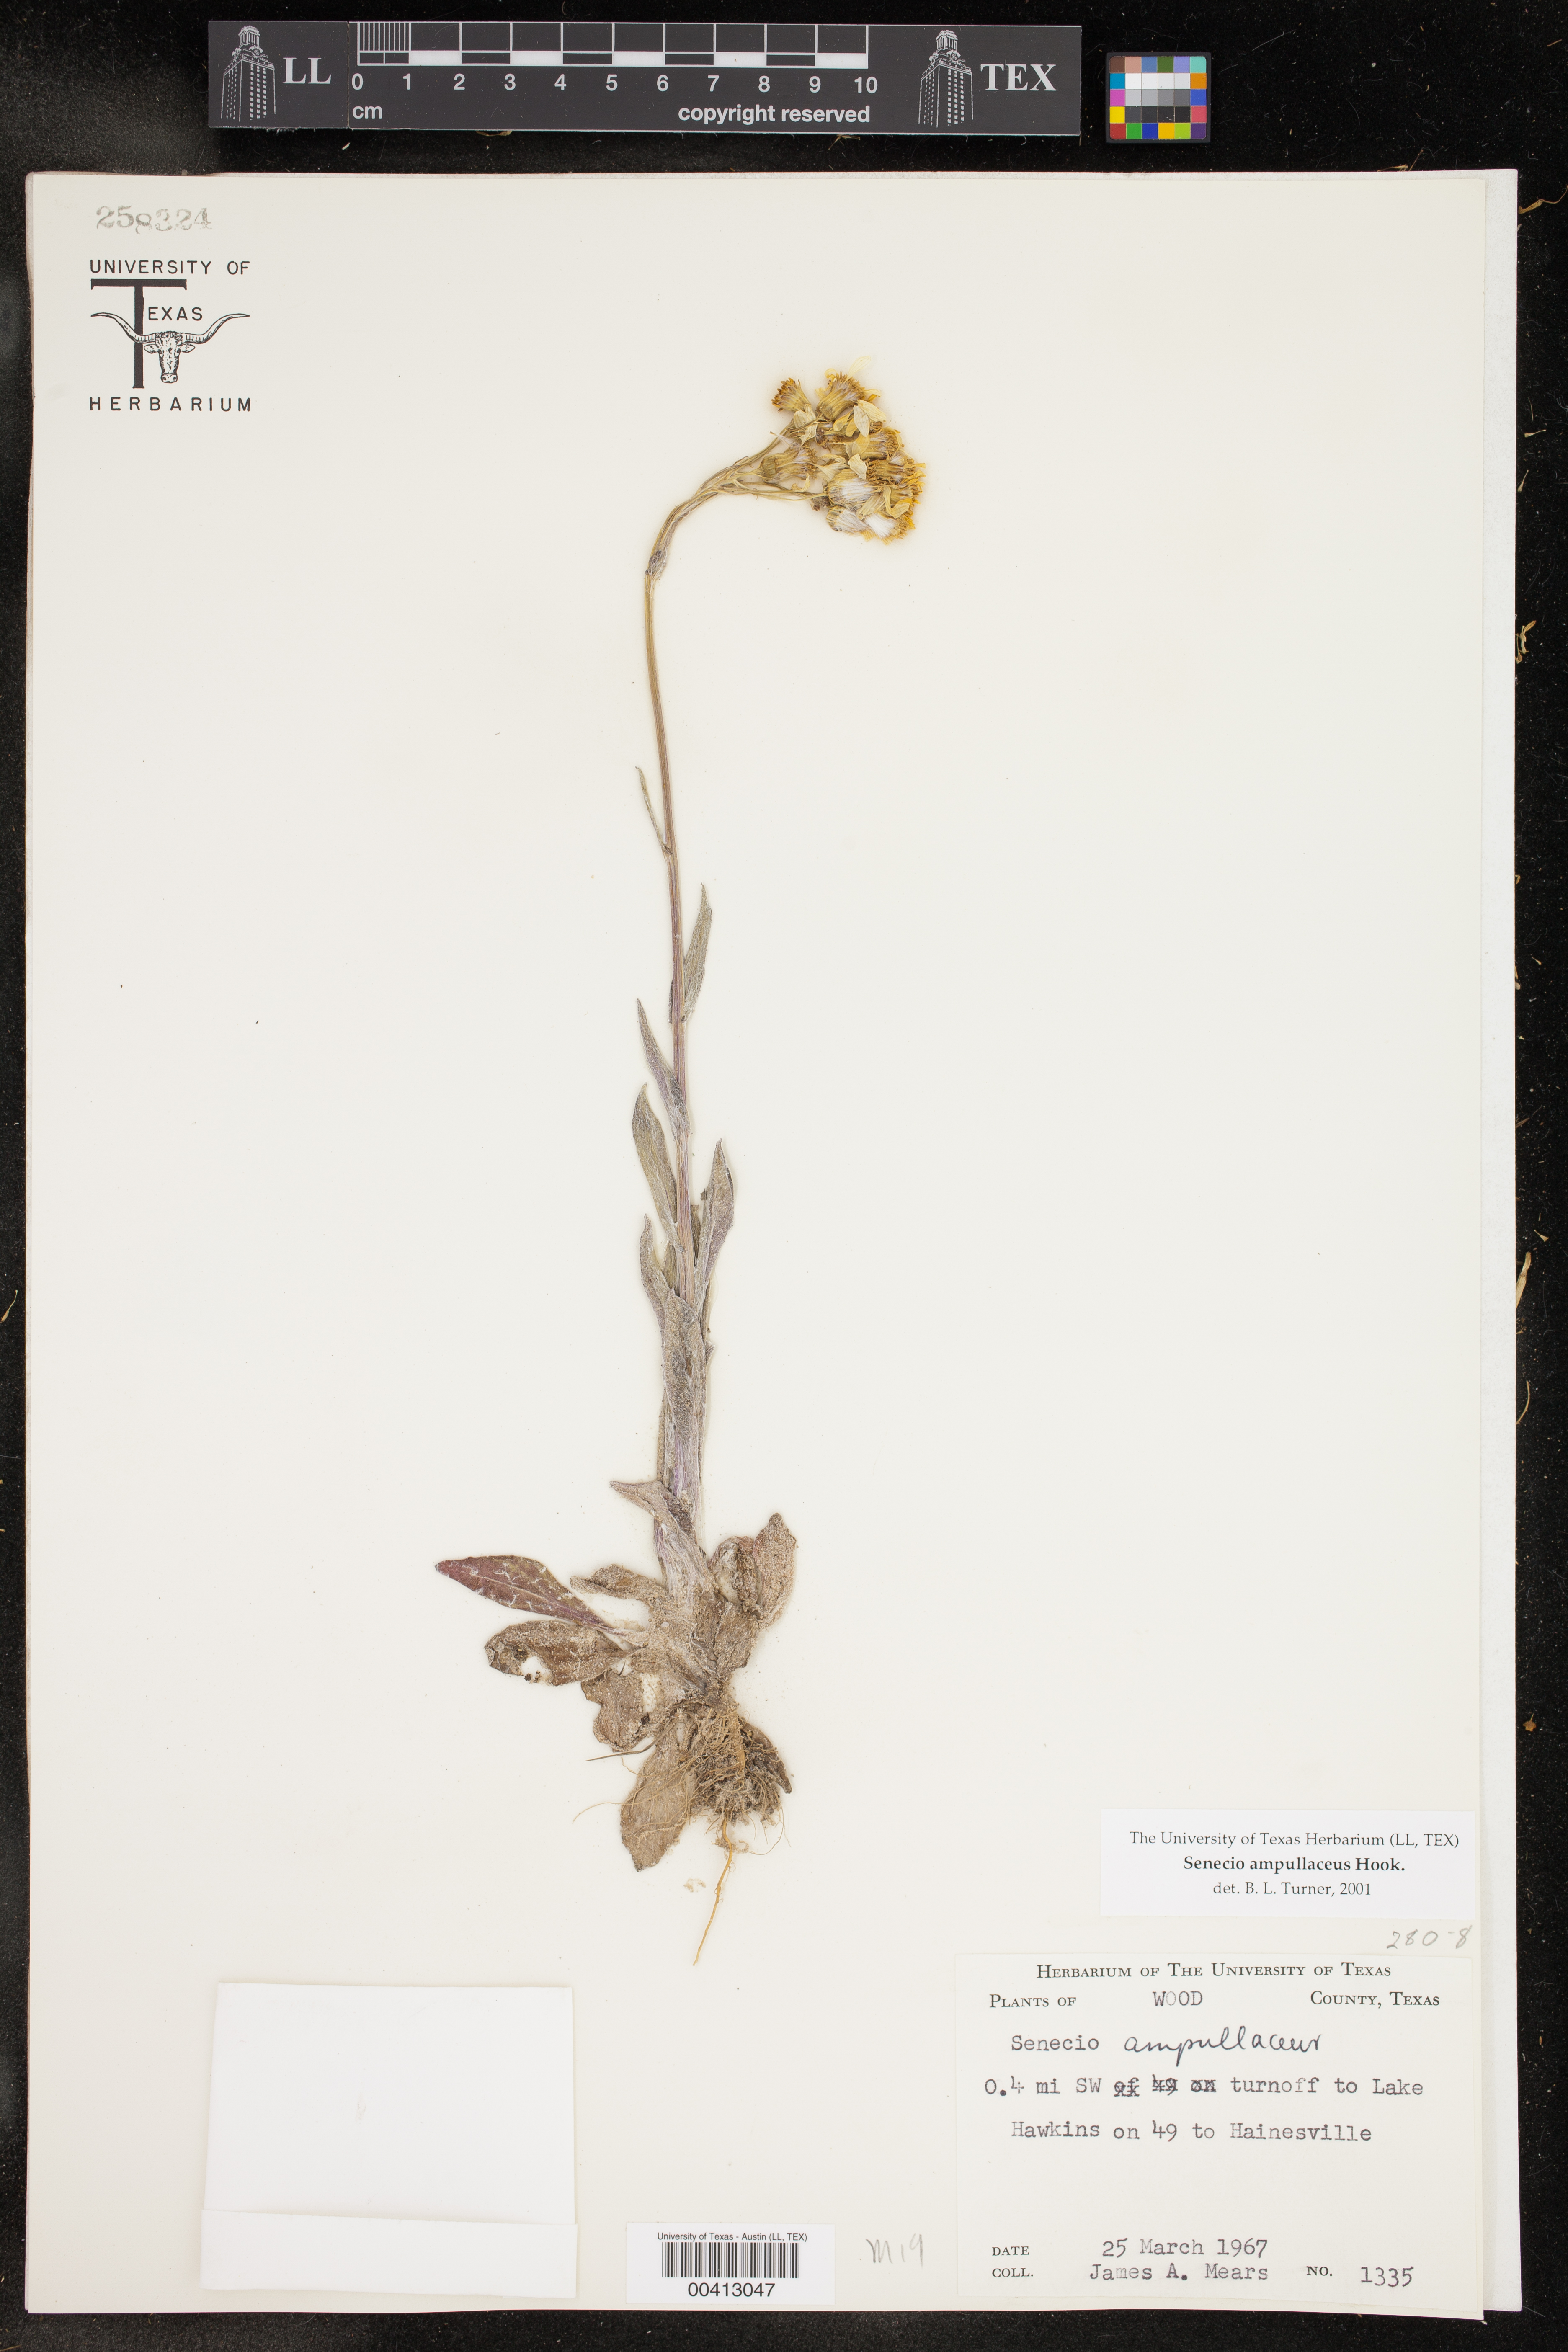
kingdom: Plantae
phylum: Tracheophyta
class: Magnoliopsida
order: Asterales
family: Asteraceae
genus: Senecio
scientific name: Senecio ampullaceus
